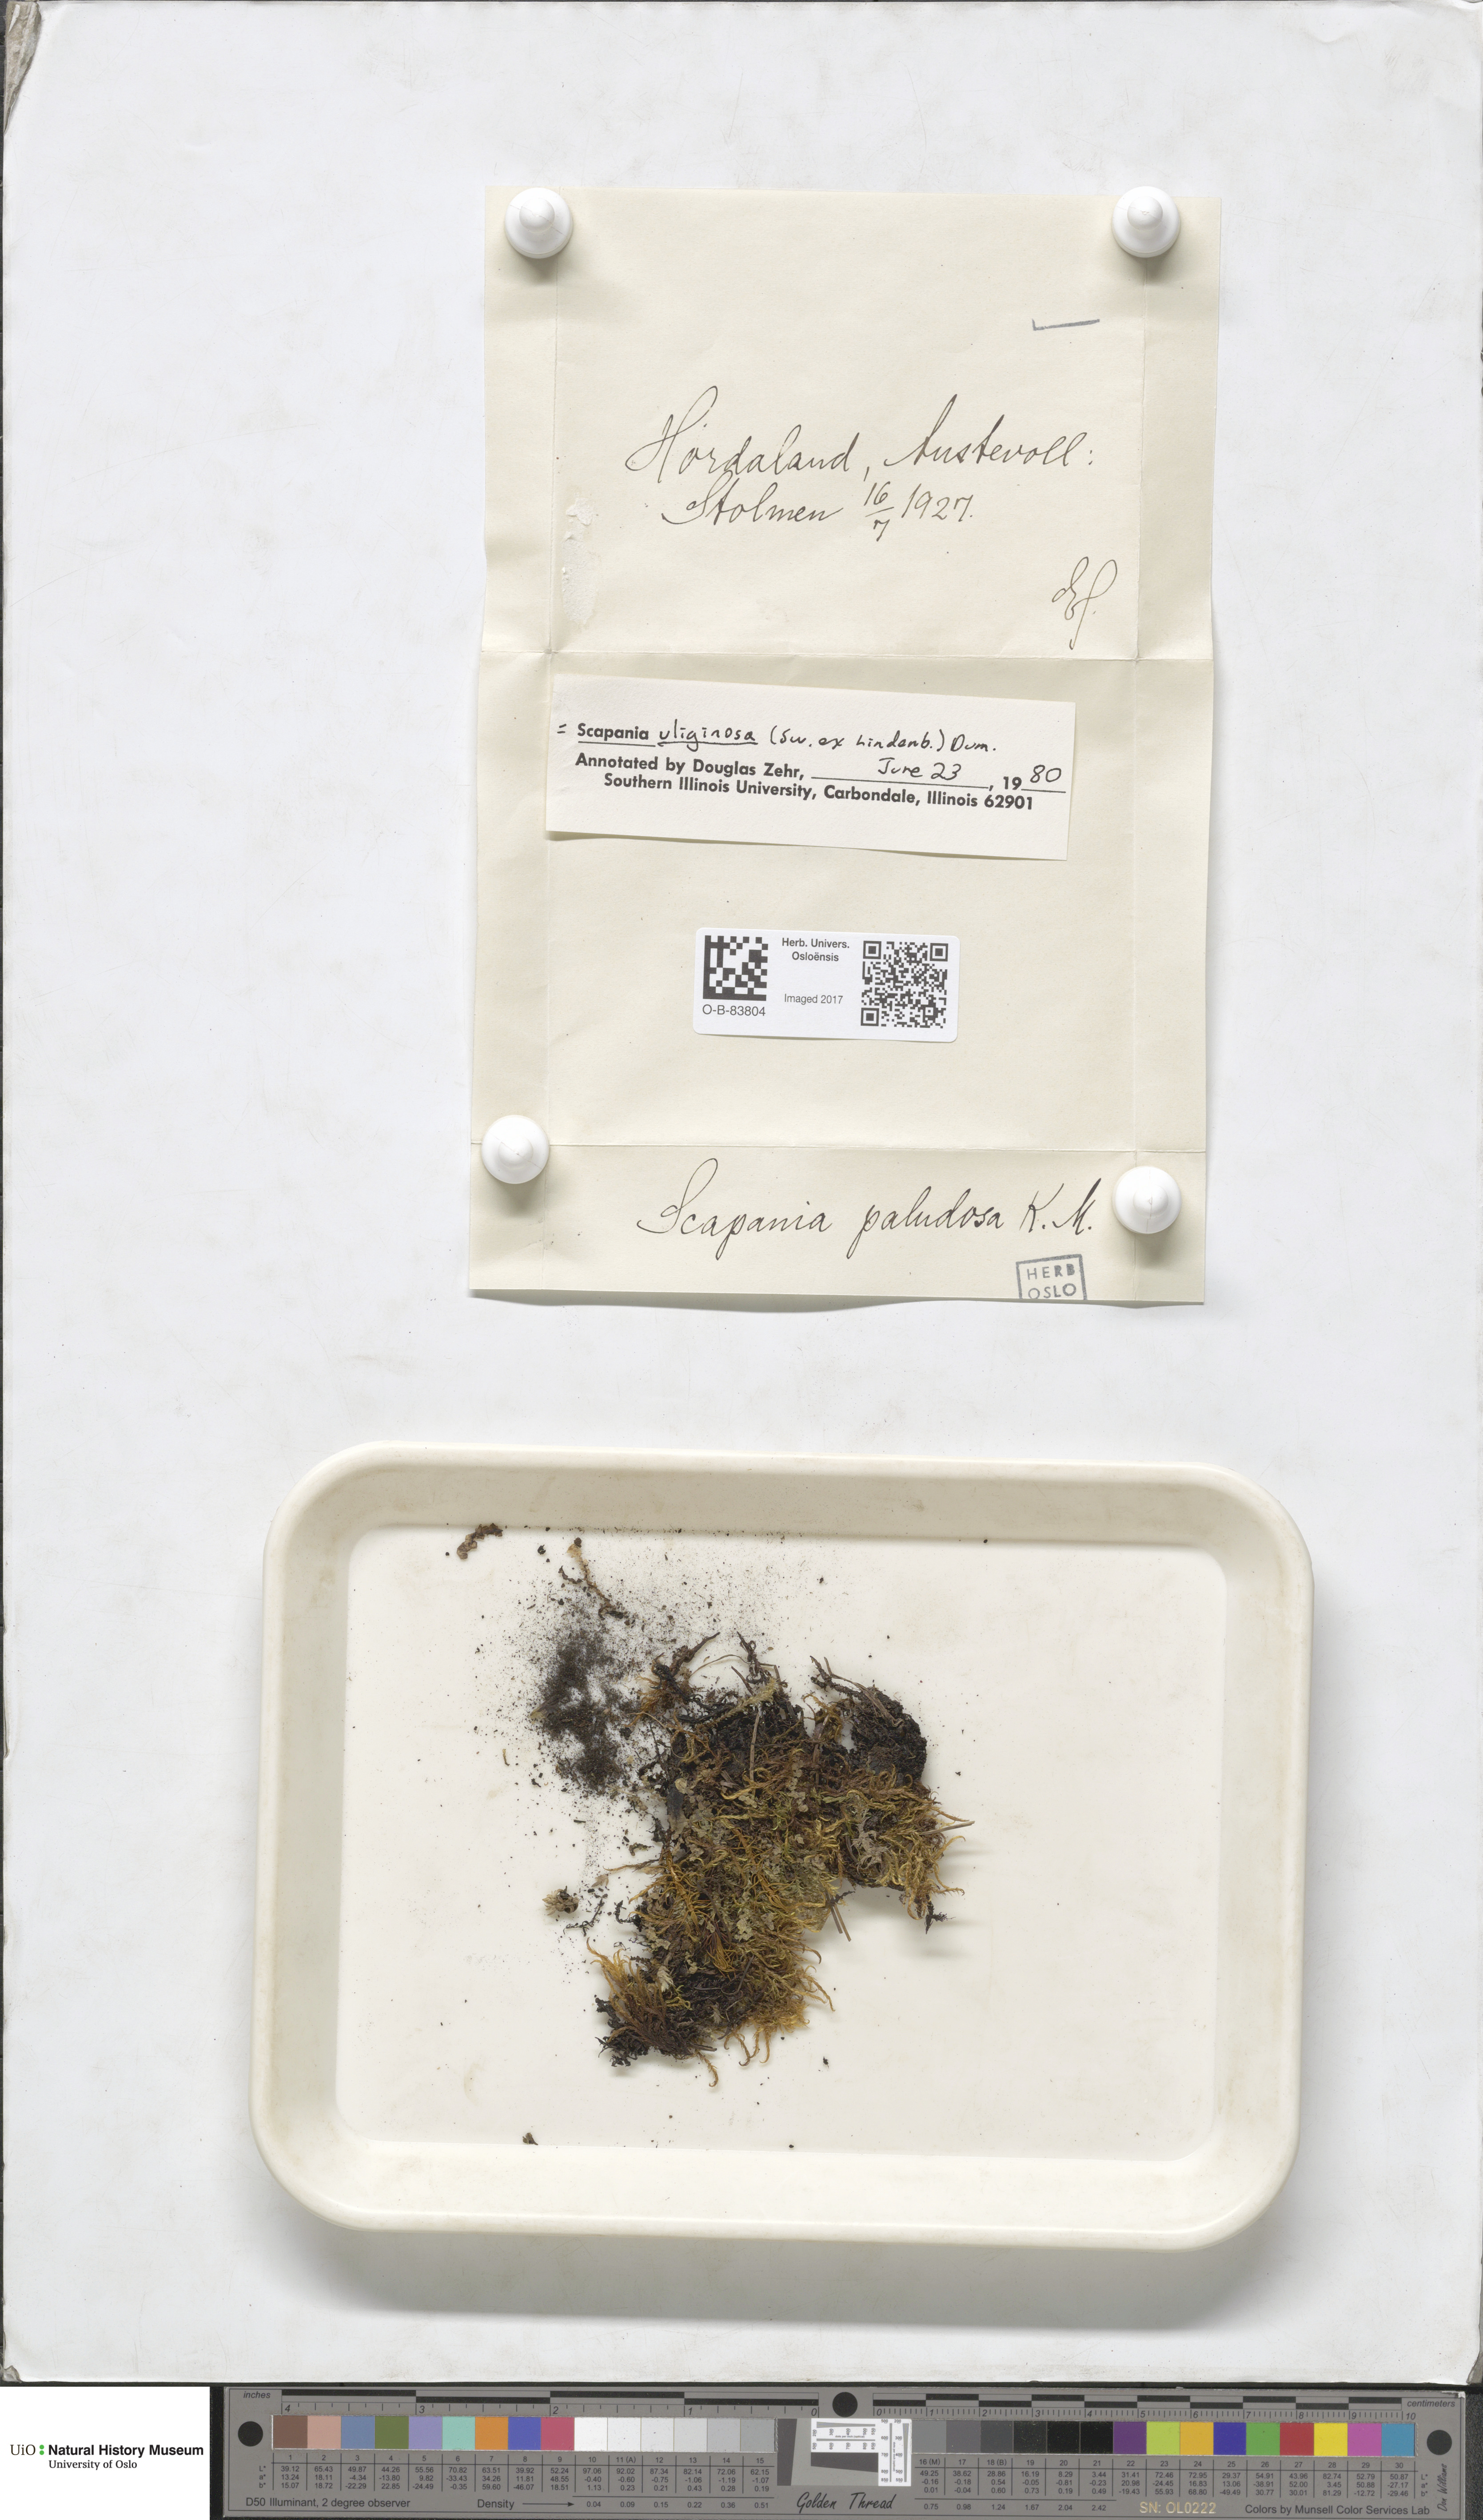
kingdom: Plantae
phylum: Marchantiophyta
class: Jungermanniopsida
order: Jungermanniales
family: Scapaniaceae
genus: Scapania
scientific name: Scapania uliginosa
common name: Marsh earwort
